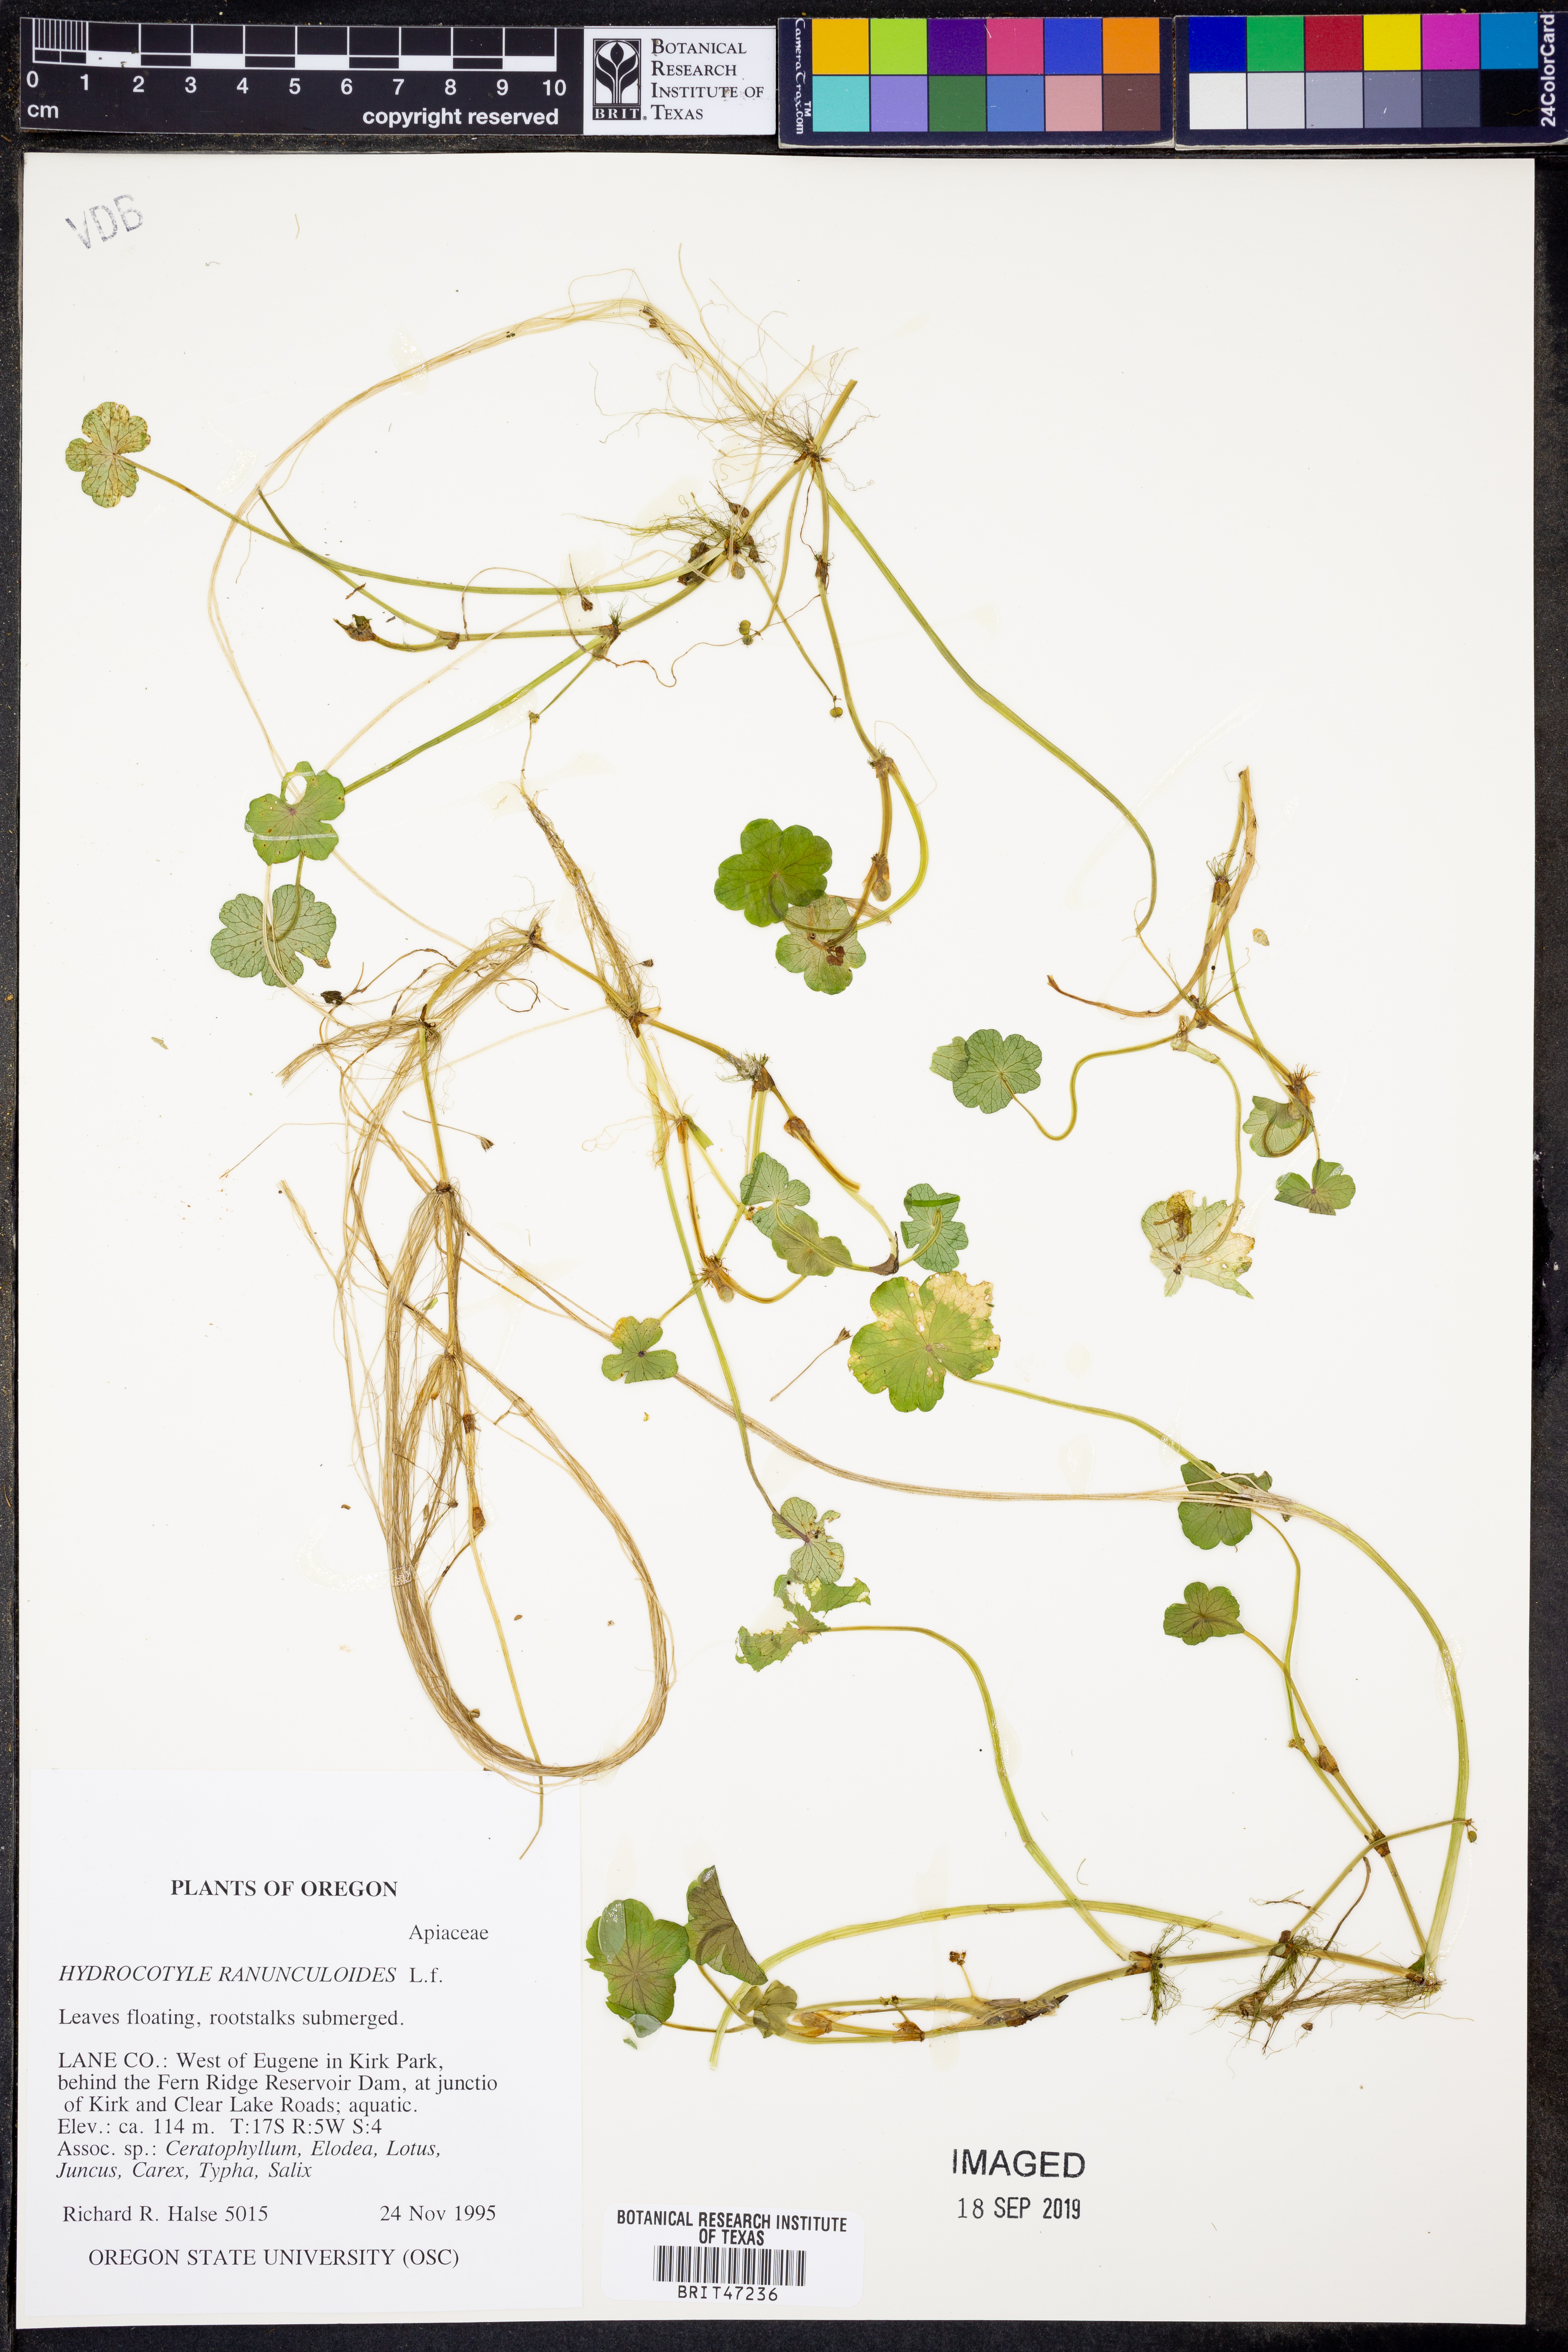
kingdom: Plantae
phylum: Tracheophyta
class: Magnoliopsida
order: Apiales
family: Araliaceae
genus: Hydrocotyle
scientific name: Hydrocotyle ranunculoides
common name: Floating pennywort
